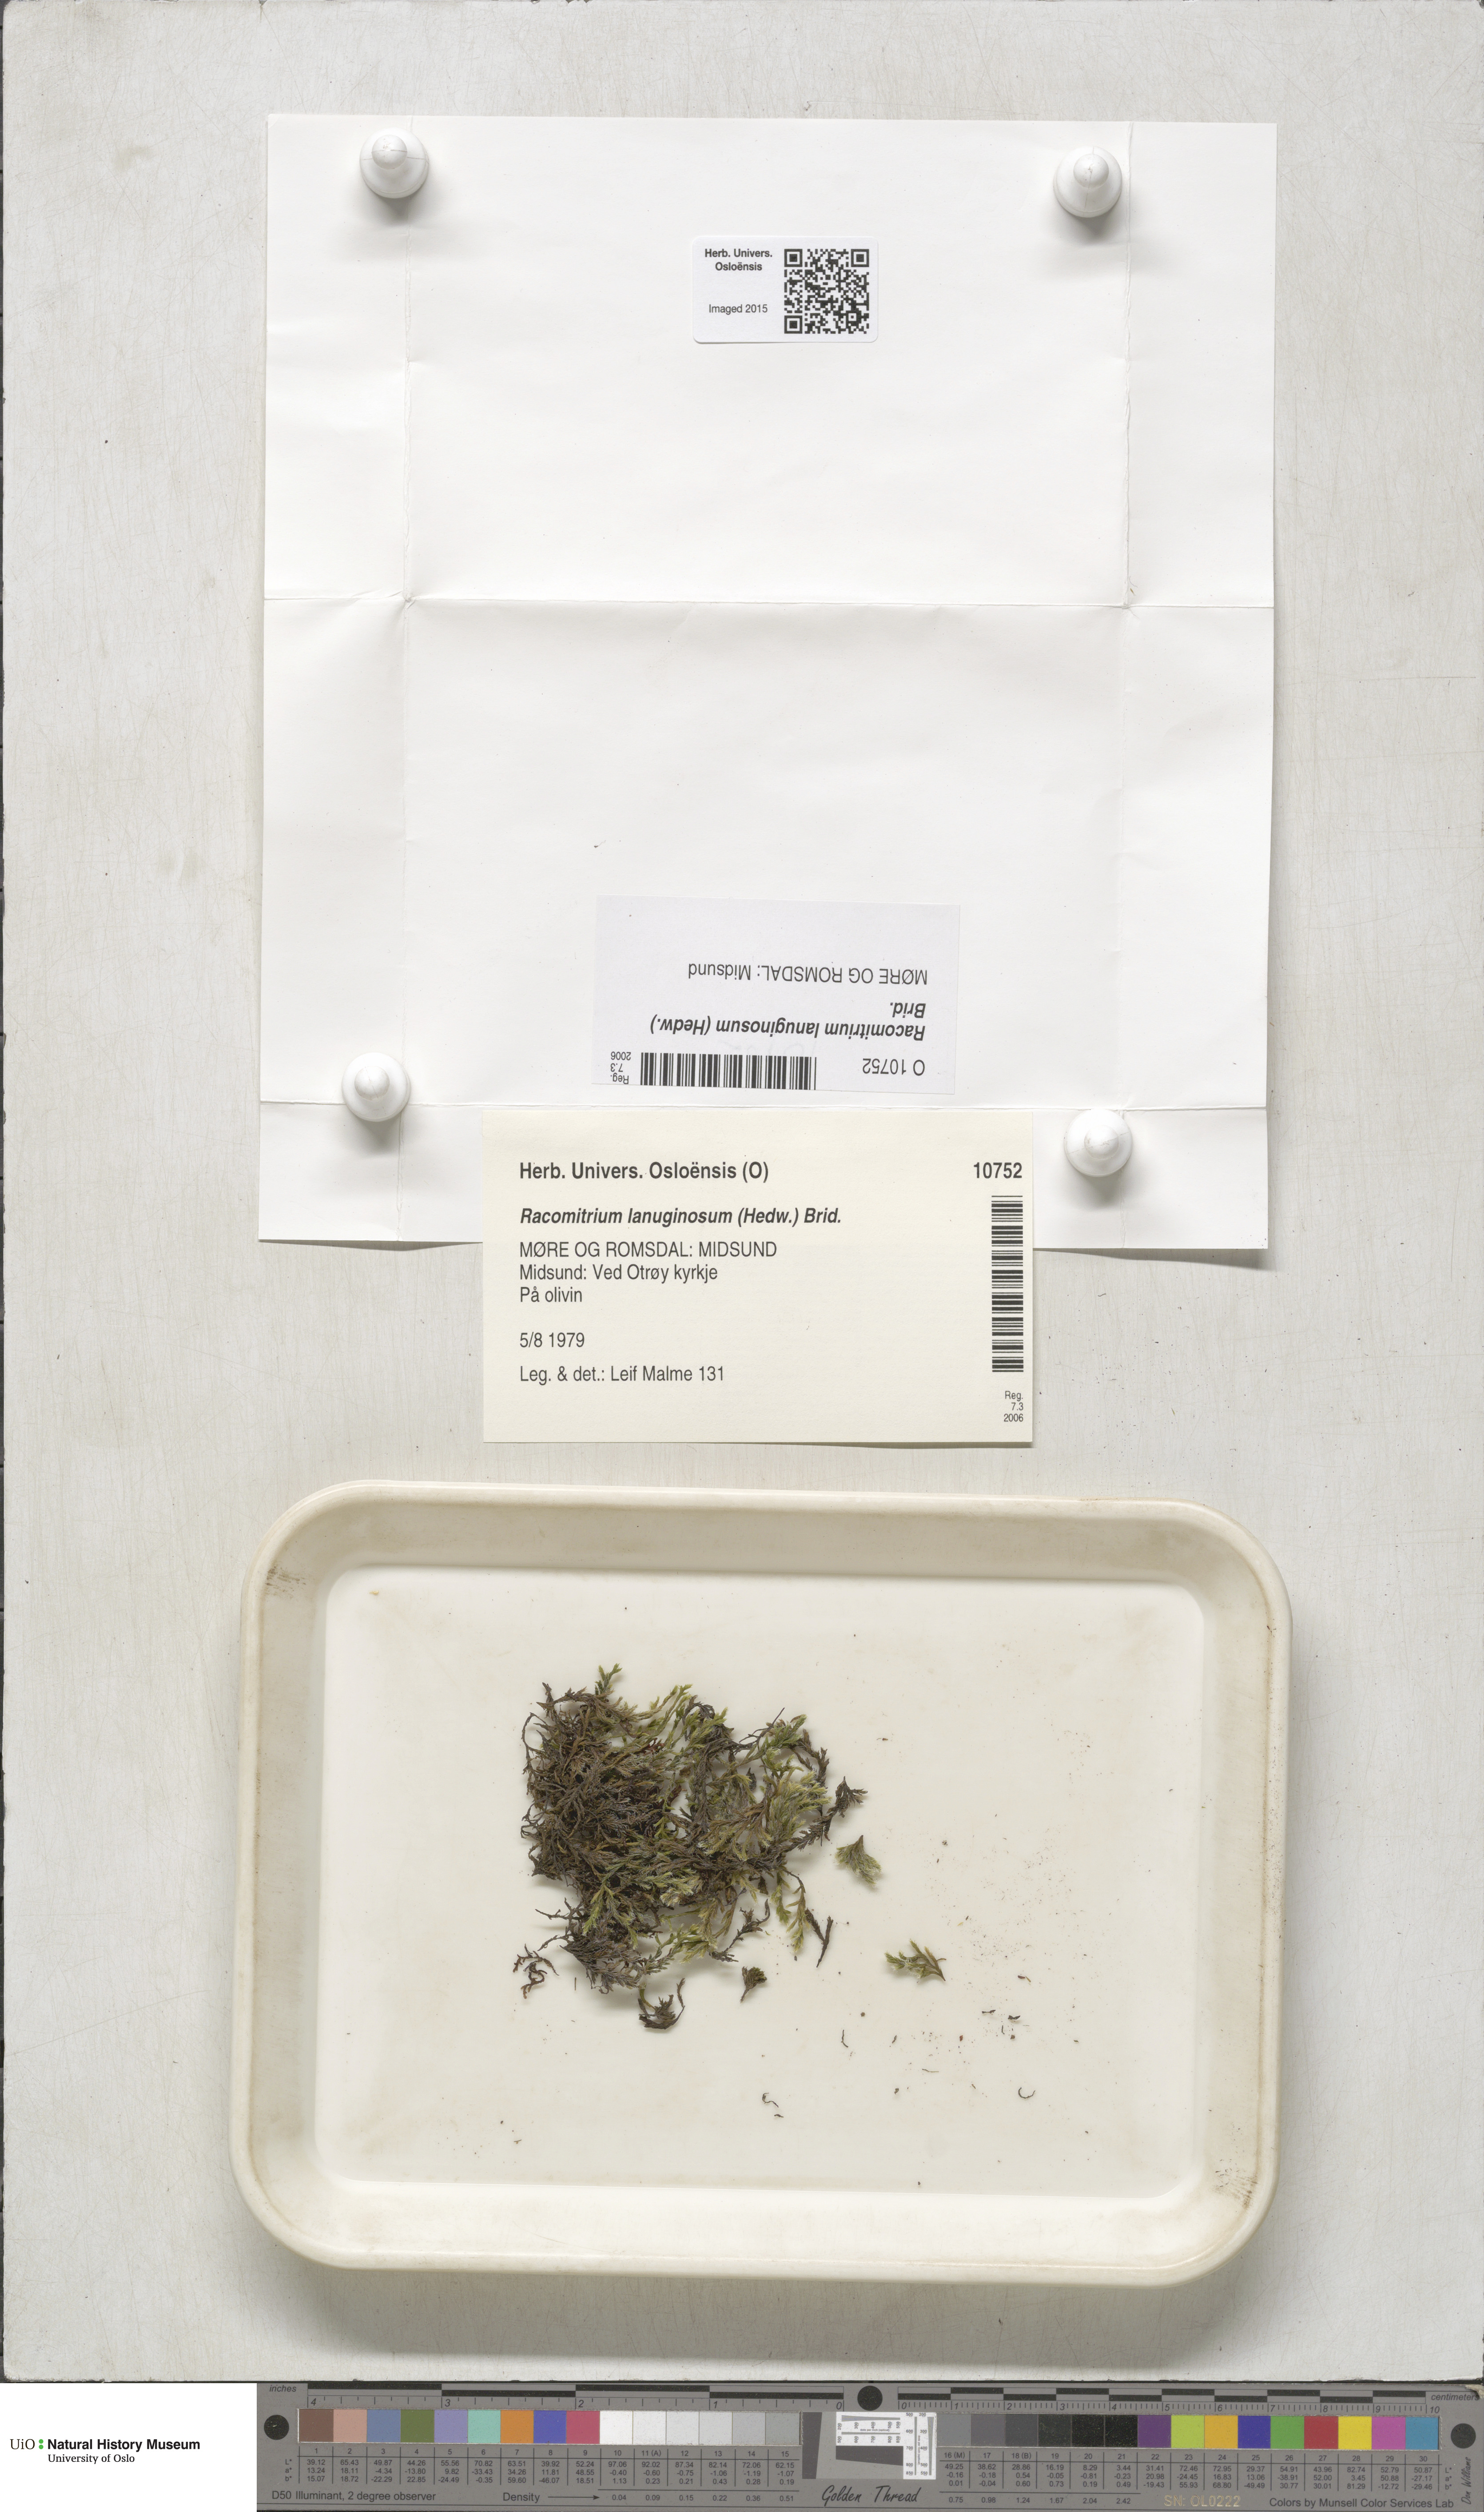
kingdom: Plantae
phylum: Bryophyta
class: Bryopsida
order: Grimmiales
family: Grimmiaceae
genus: Racomitrium
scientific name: Racomitrium lanuginosum
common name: Hoary rock moss
